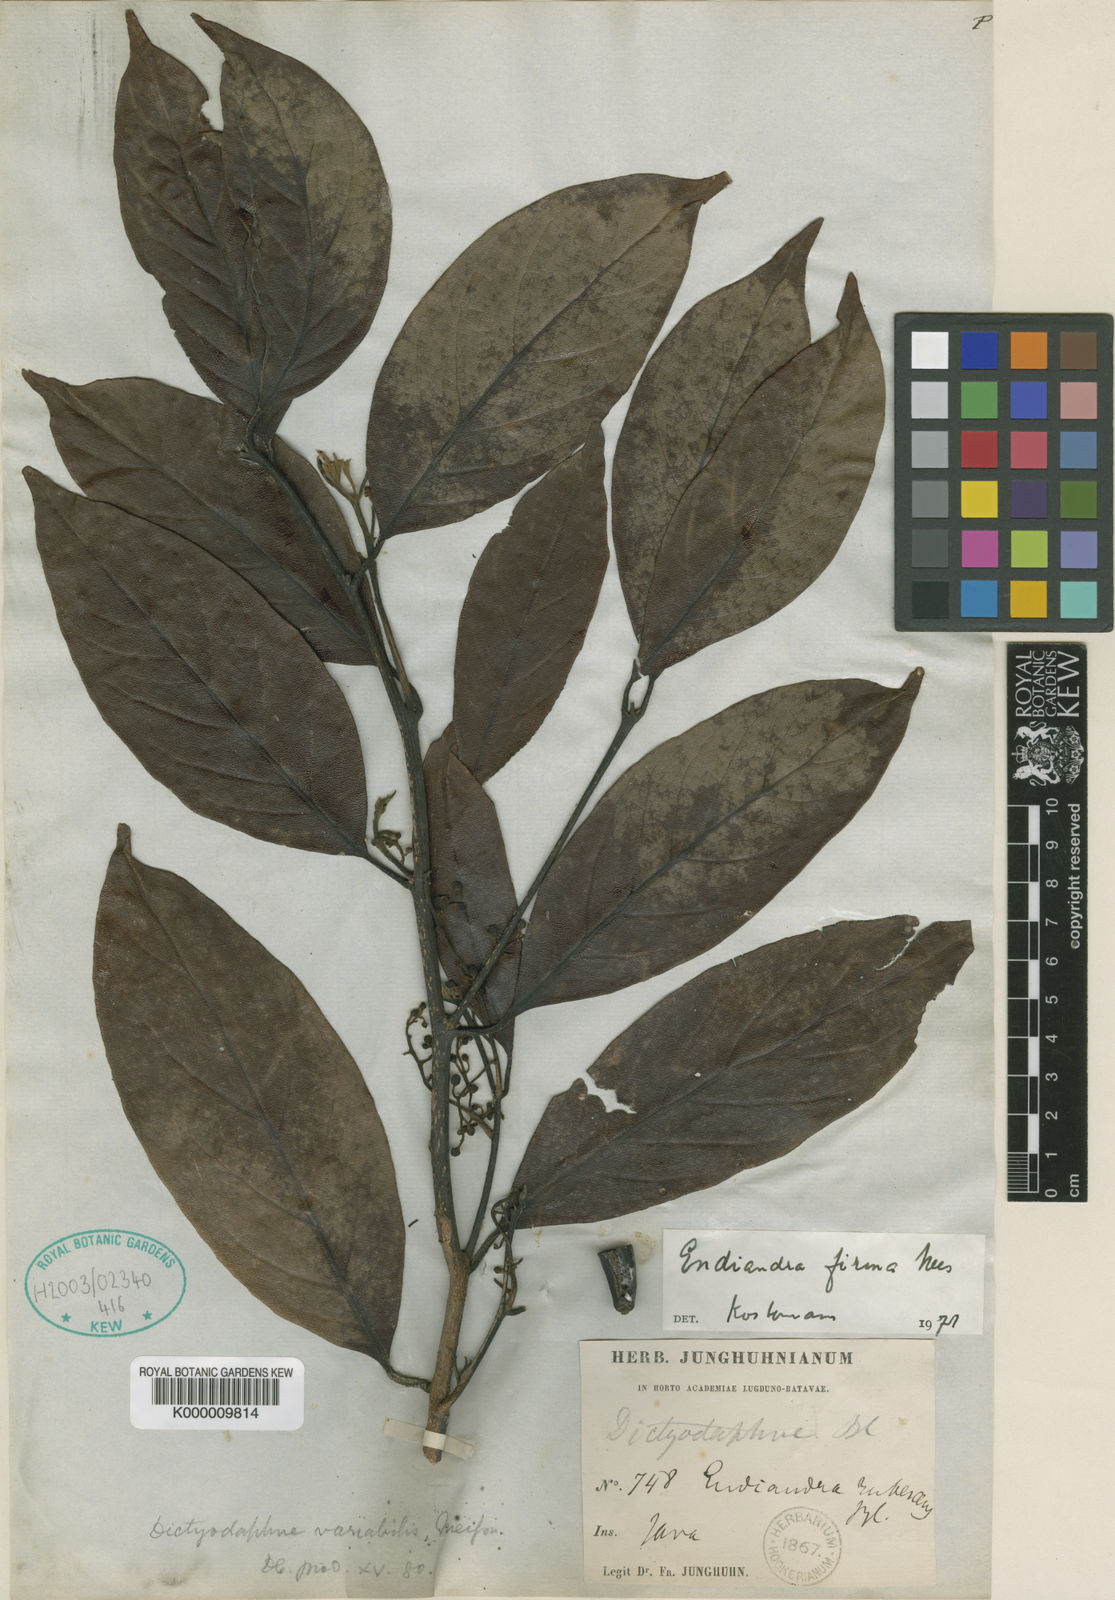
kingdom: Plantae
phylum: Tracheophyta
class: Magnoliopsida
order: Laurales
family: Lauraceae
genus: Endiandra
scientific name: Endiandra firma
